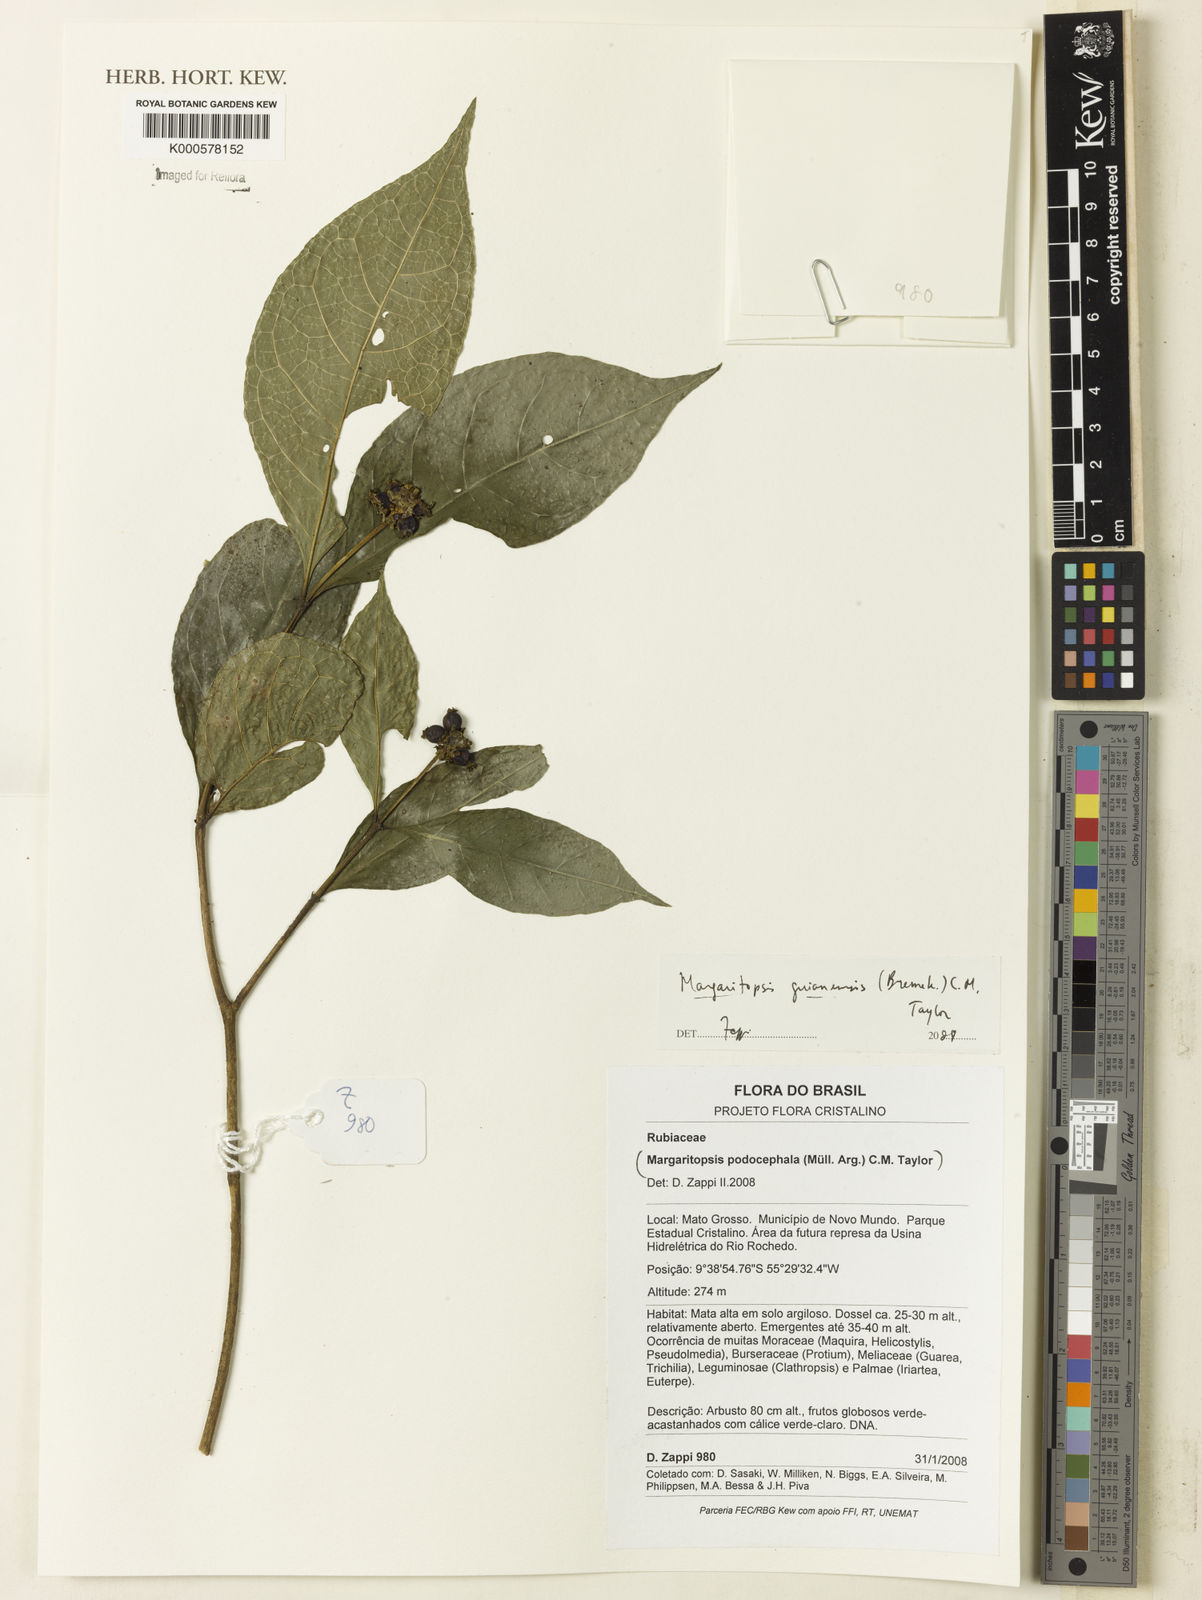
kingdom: Plantae
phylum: Tracheophyta
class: Magnoliopsida
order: Gentianales
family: Rubiaceae
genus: Eumachia
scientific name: Eumachia guianensis
